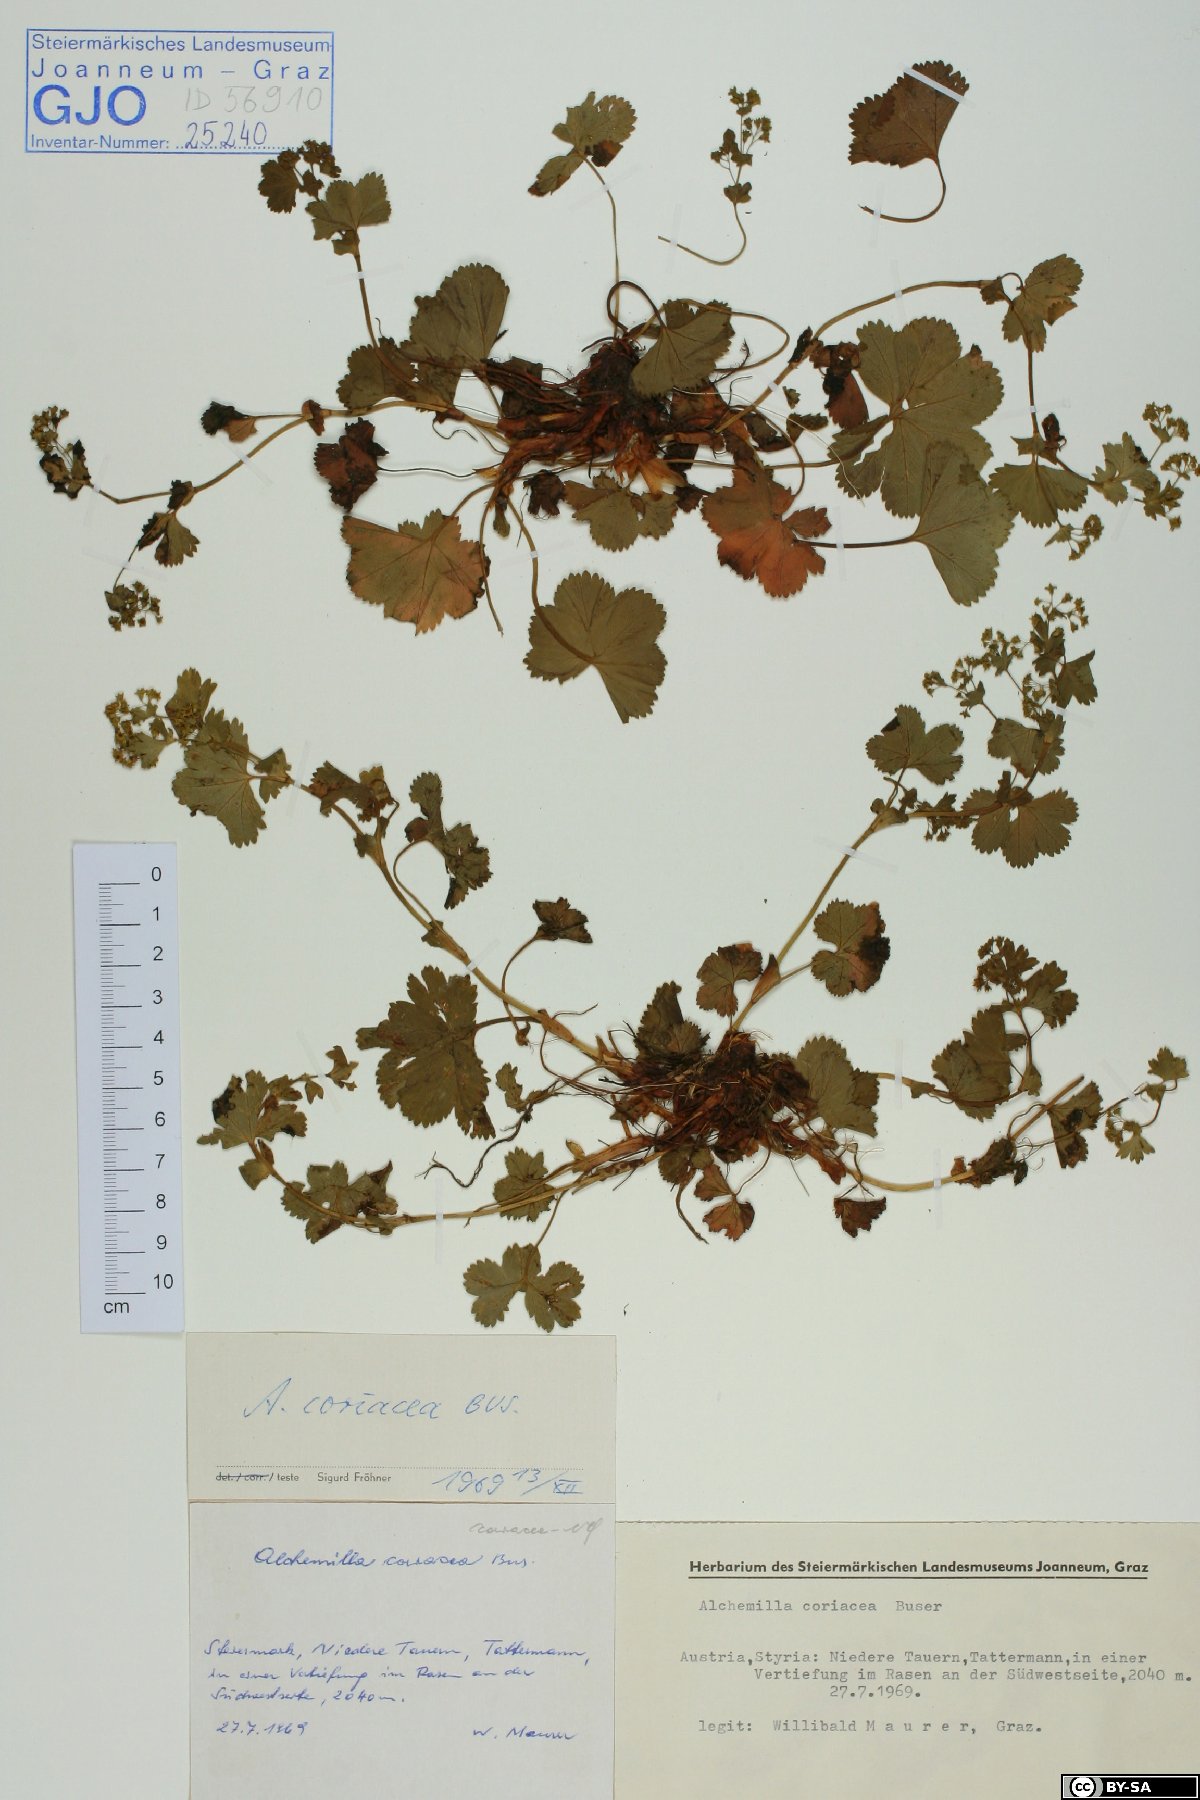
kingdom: Plantae
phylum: Tracheophyta
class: Magnoliopsida
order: Rosales
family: Rosaceae
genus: Alchemilla
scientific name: Alchemilla coriacea
